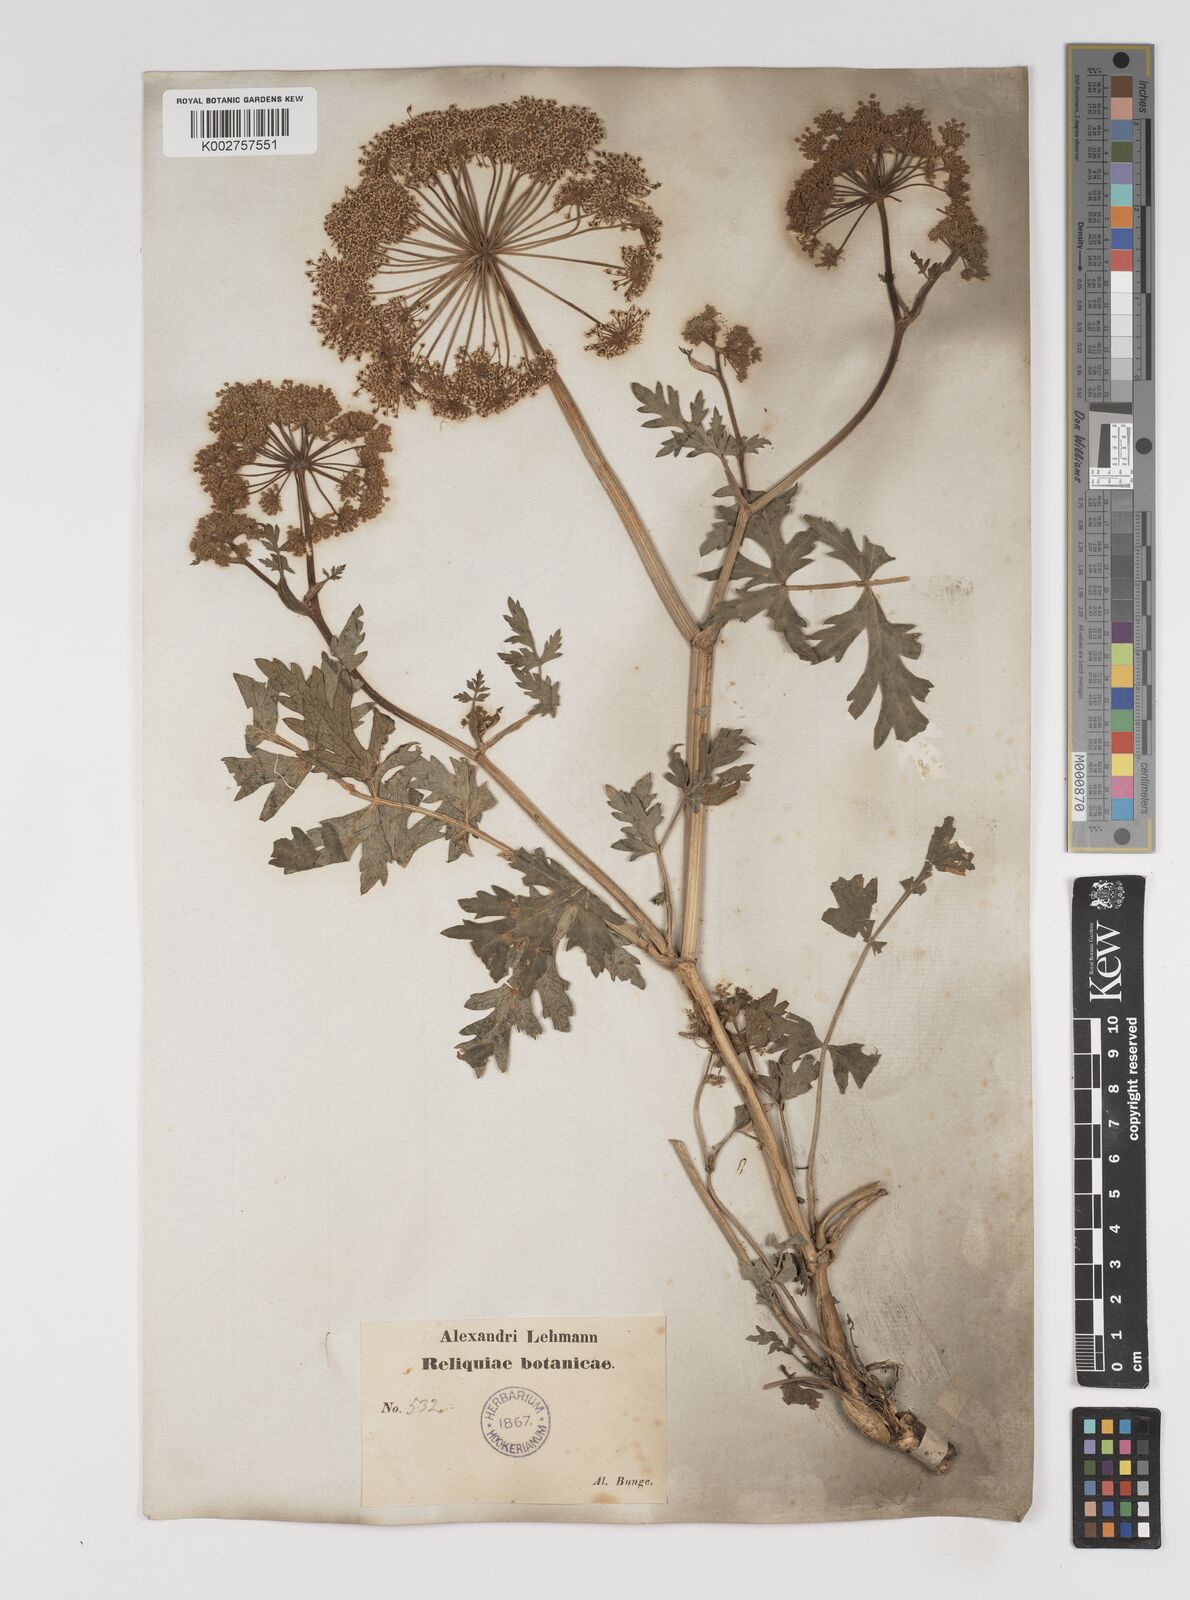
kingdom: Plantae
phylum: Tracheophyta
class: Magnoliopsida
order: Apiales
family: Apiaceae
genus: Seseli
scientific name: Seseli libanotis
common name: Mooncarrot
